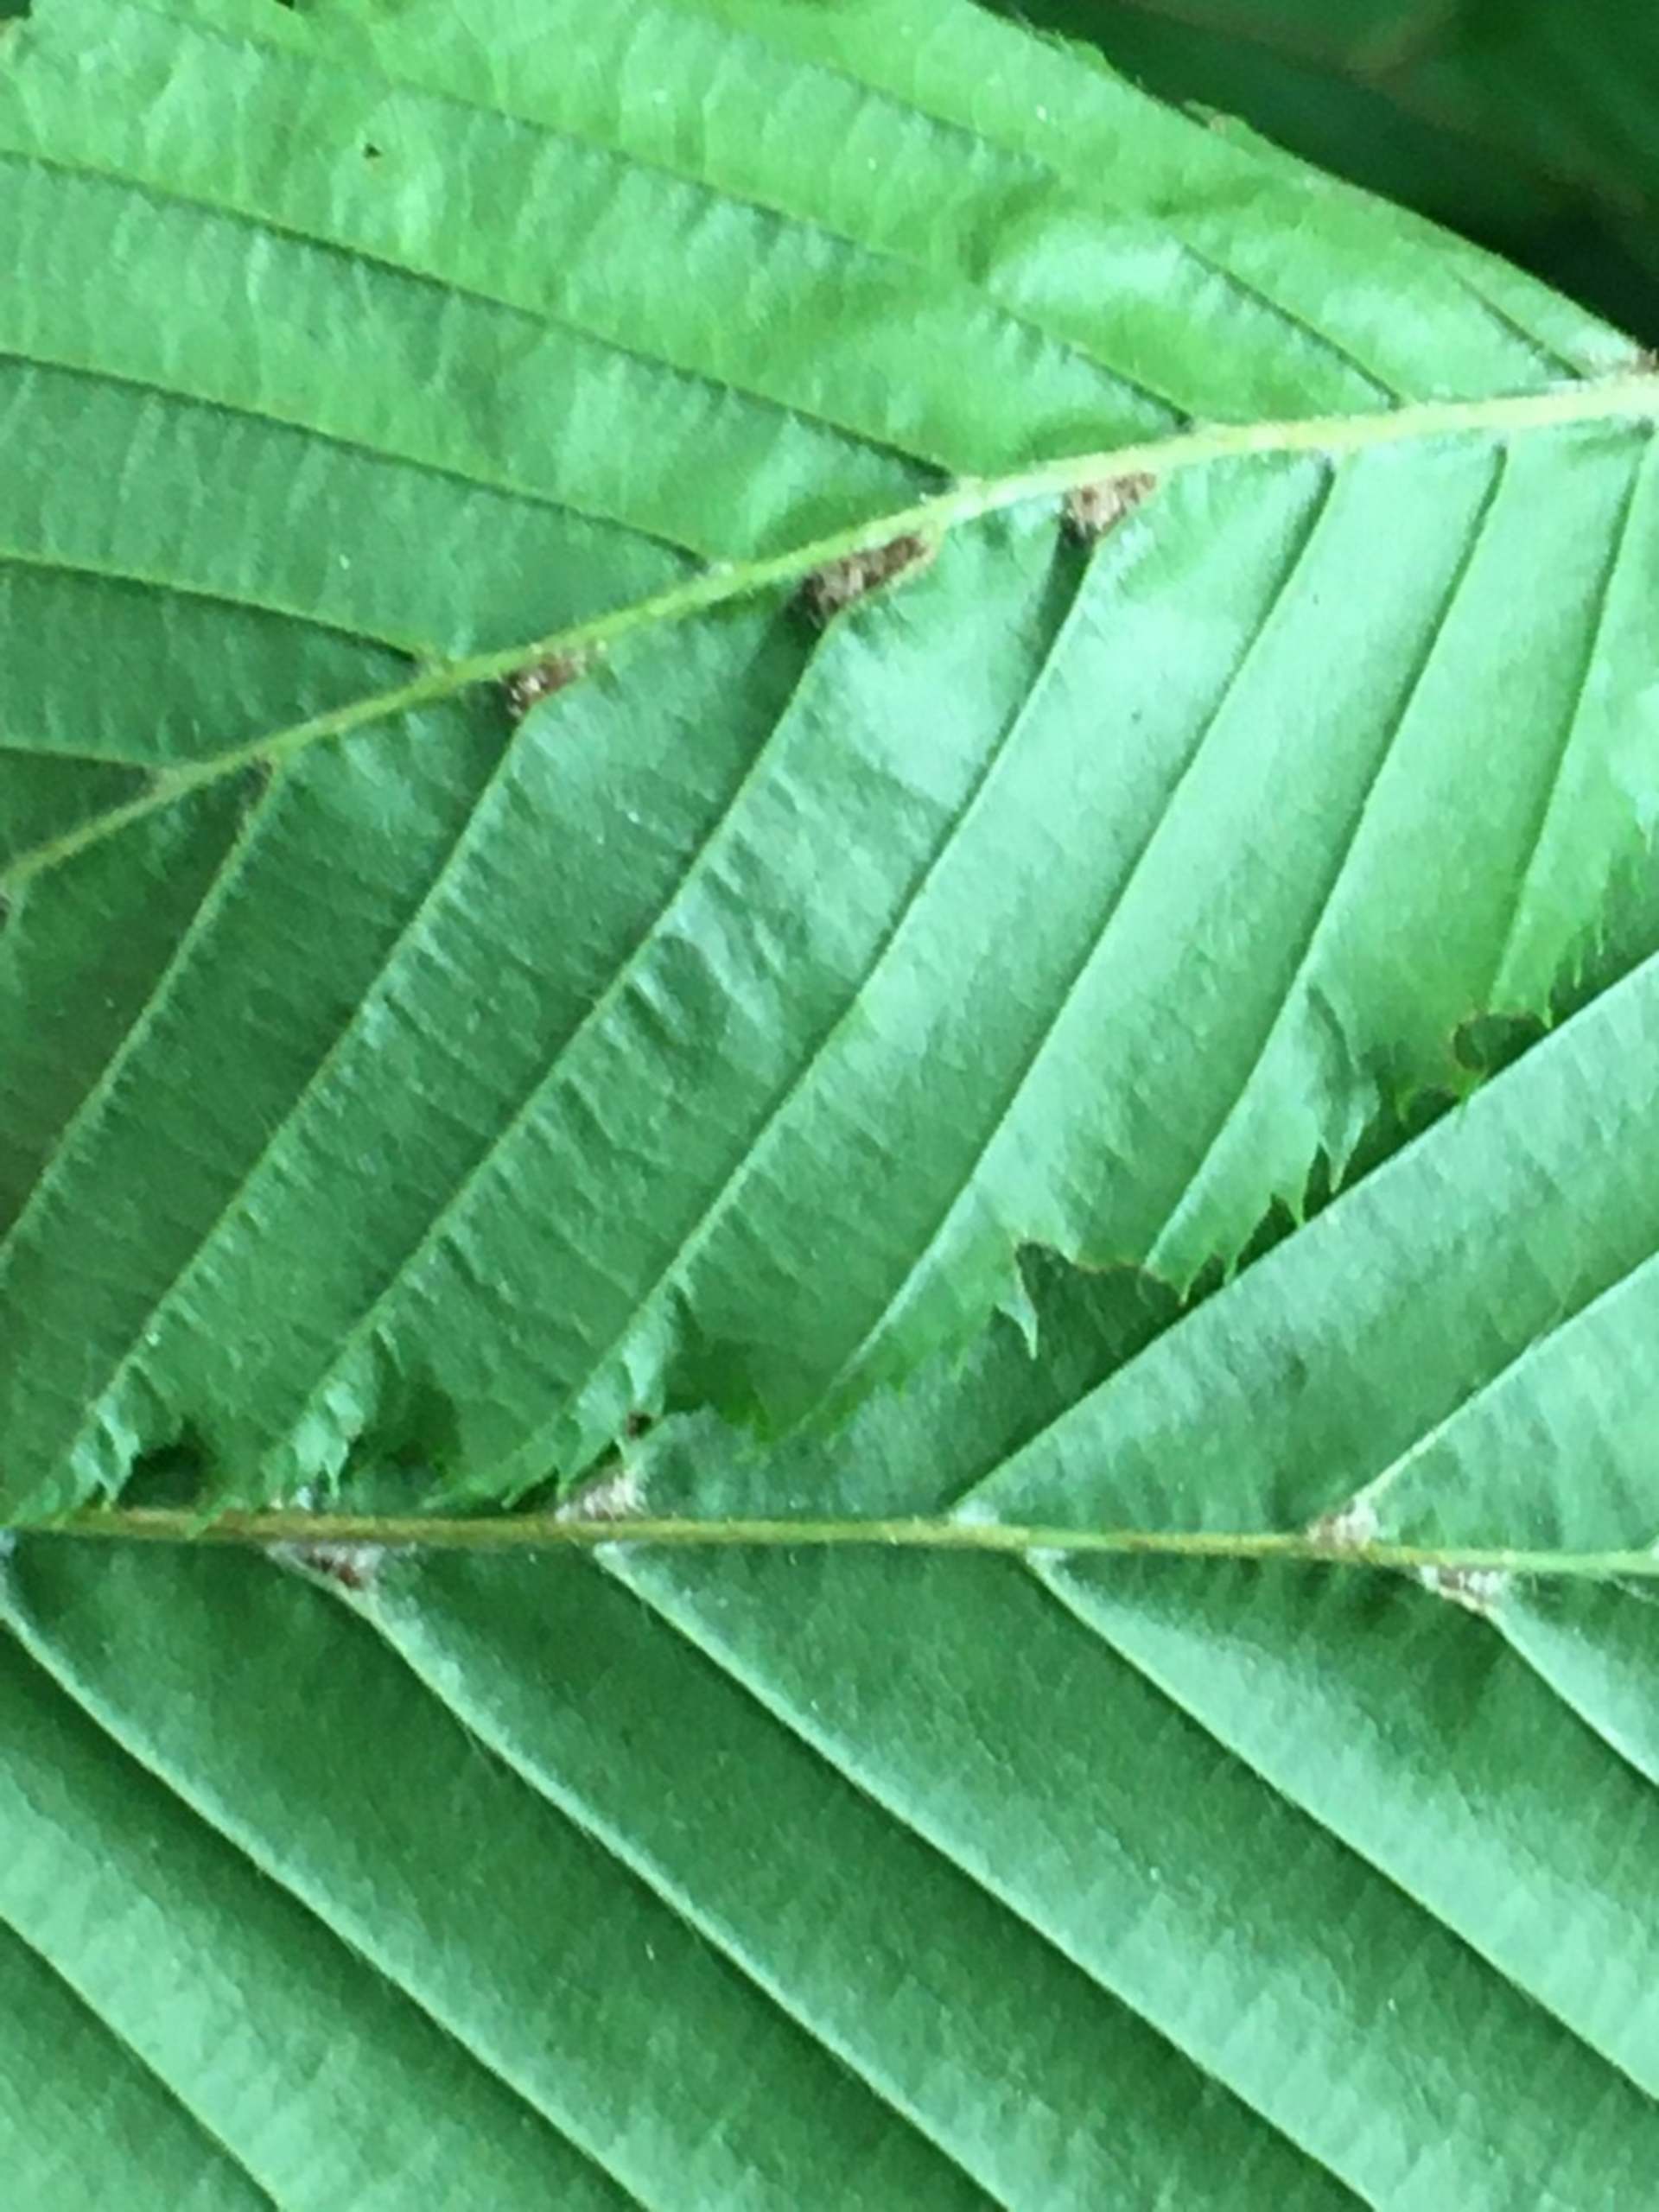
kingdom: Animalia
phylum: Arthropoda
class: Arachnida
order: Trombidiformes
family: Eriophyidae
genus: Aceria
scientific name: Aceria tenellus
